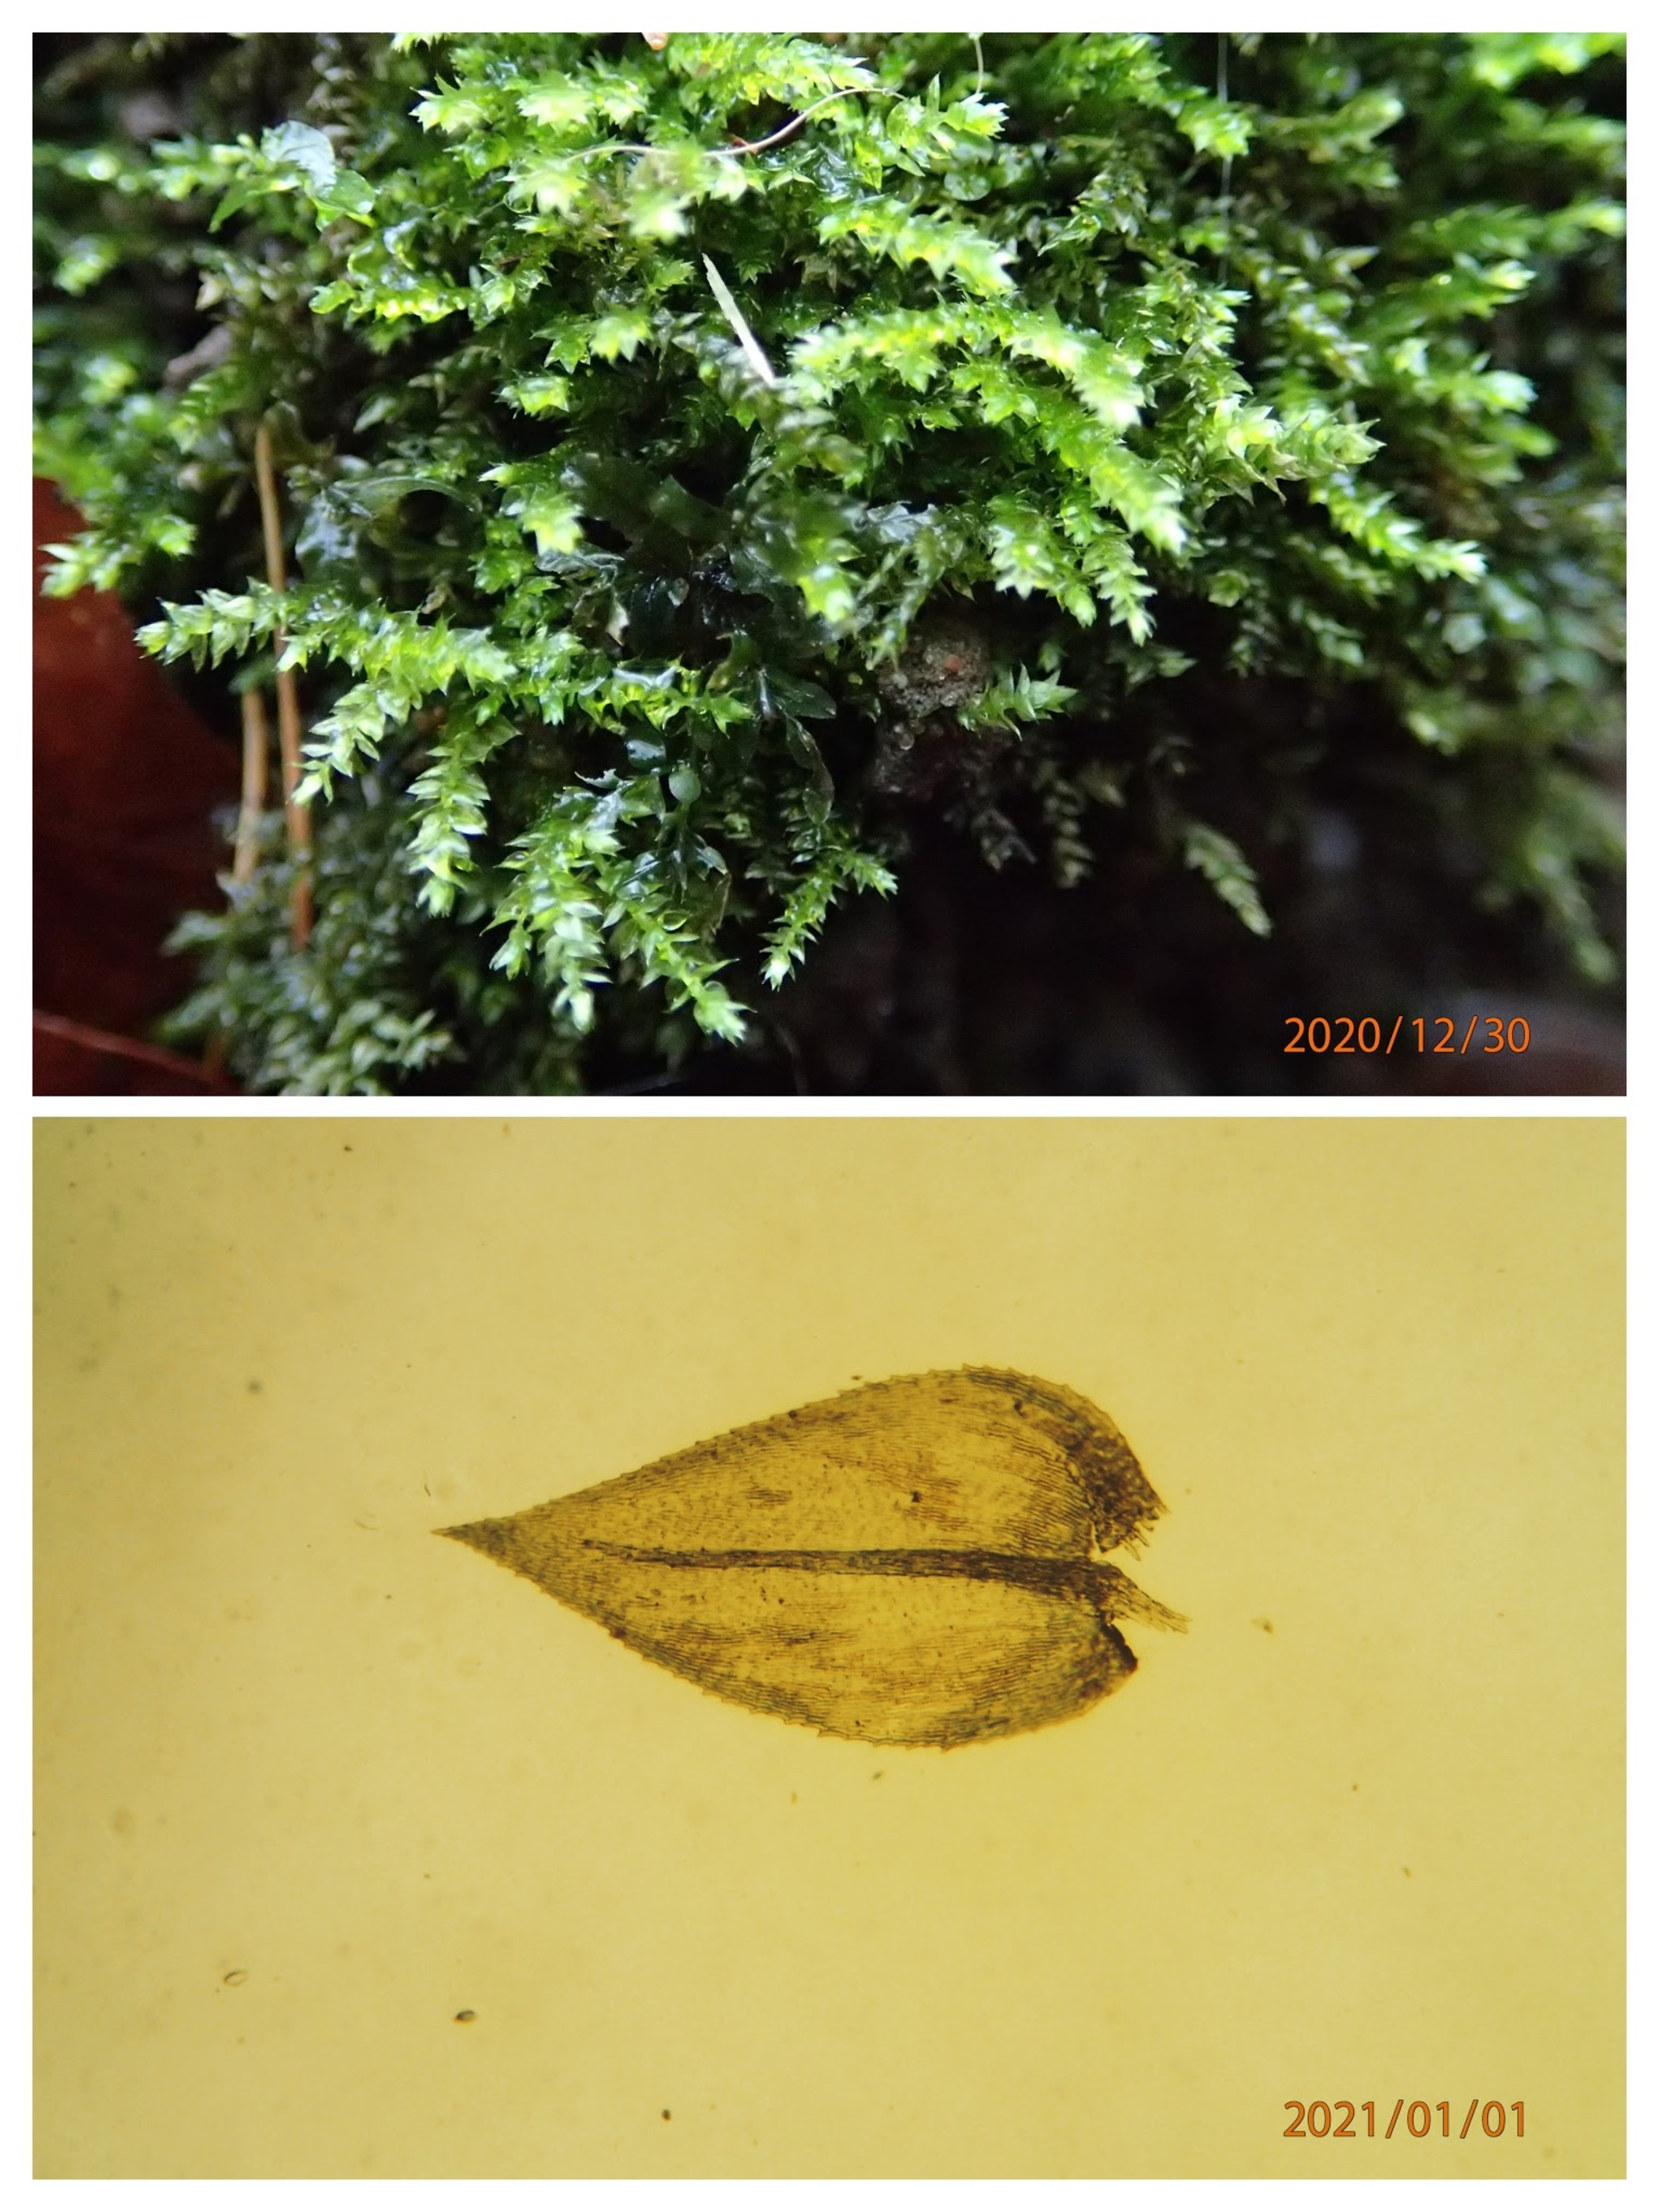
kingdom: Plantae
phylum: Bryophyta
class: Bryopsida
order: Hypnales
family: Brachytheciaceae
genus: Oxyrrhynchium
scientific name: Oxyrrhynchium hians
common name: Ler-vortetand
